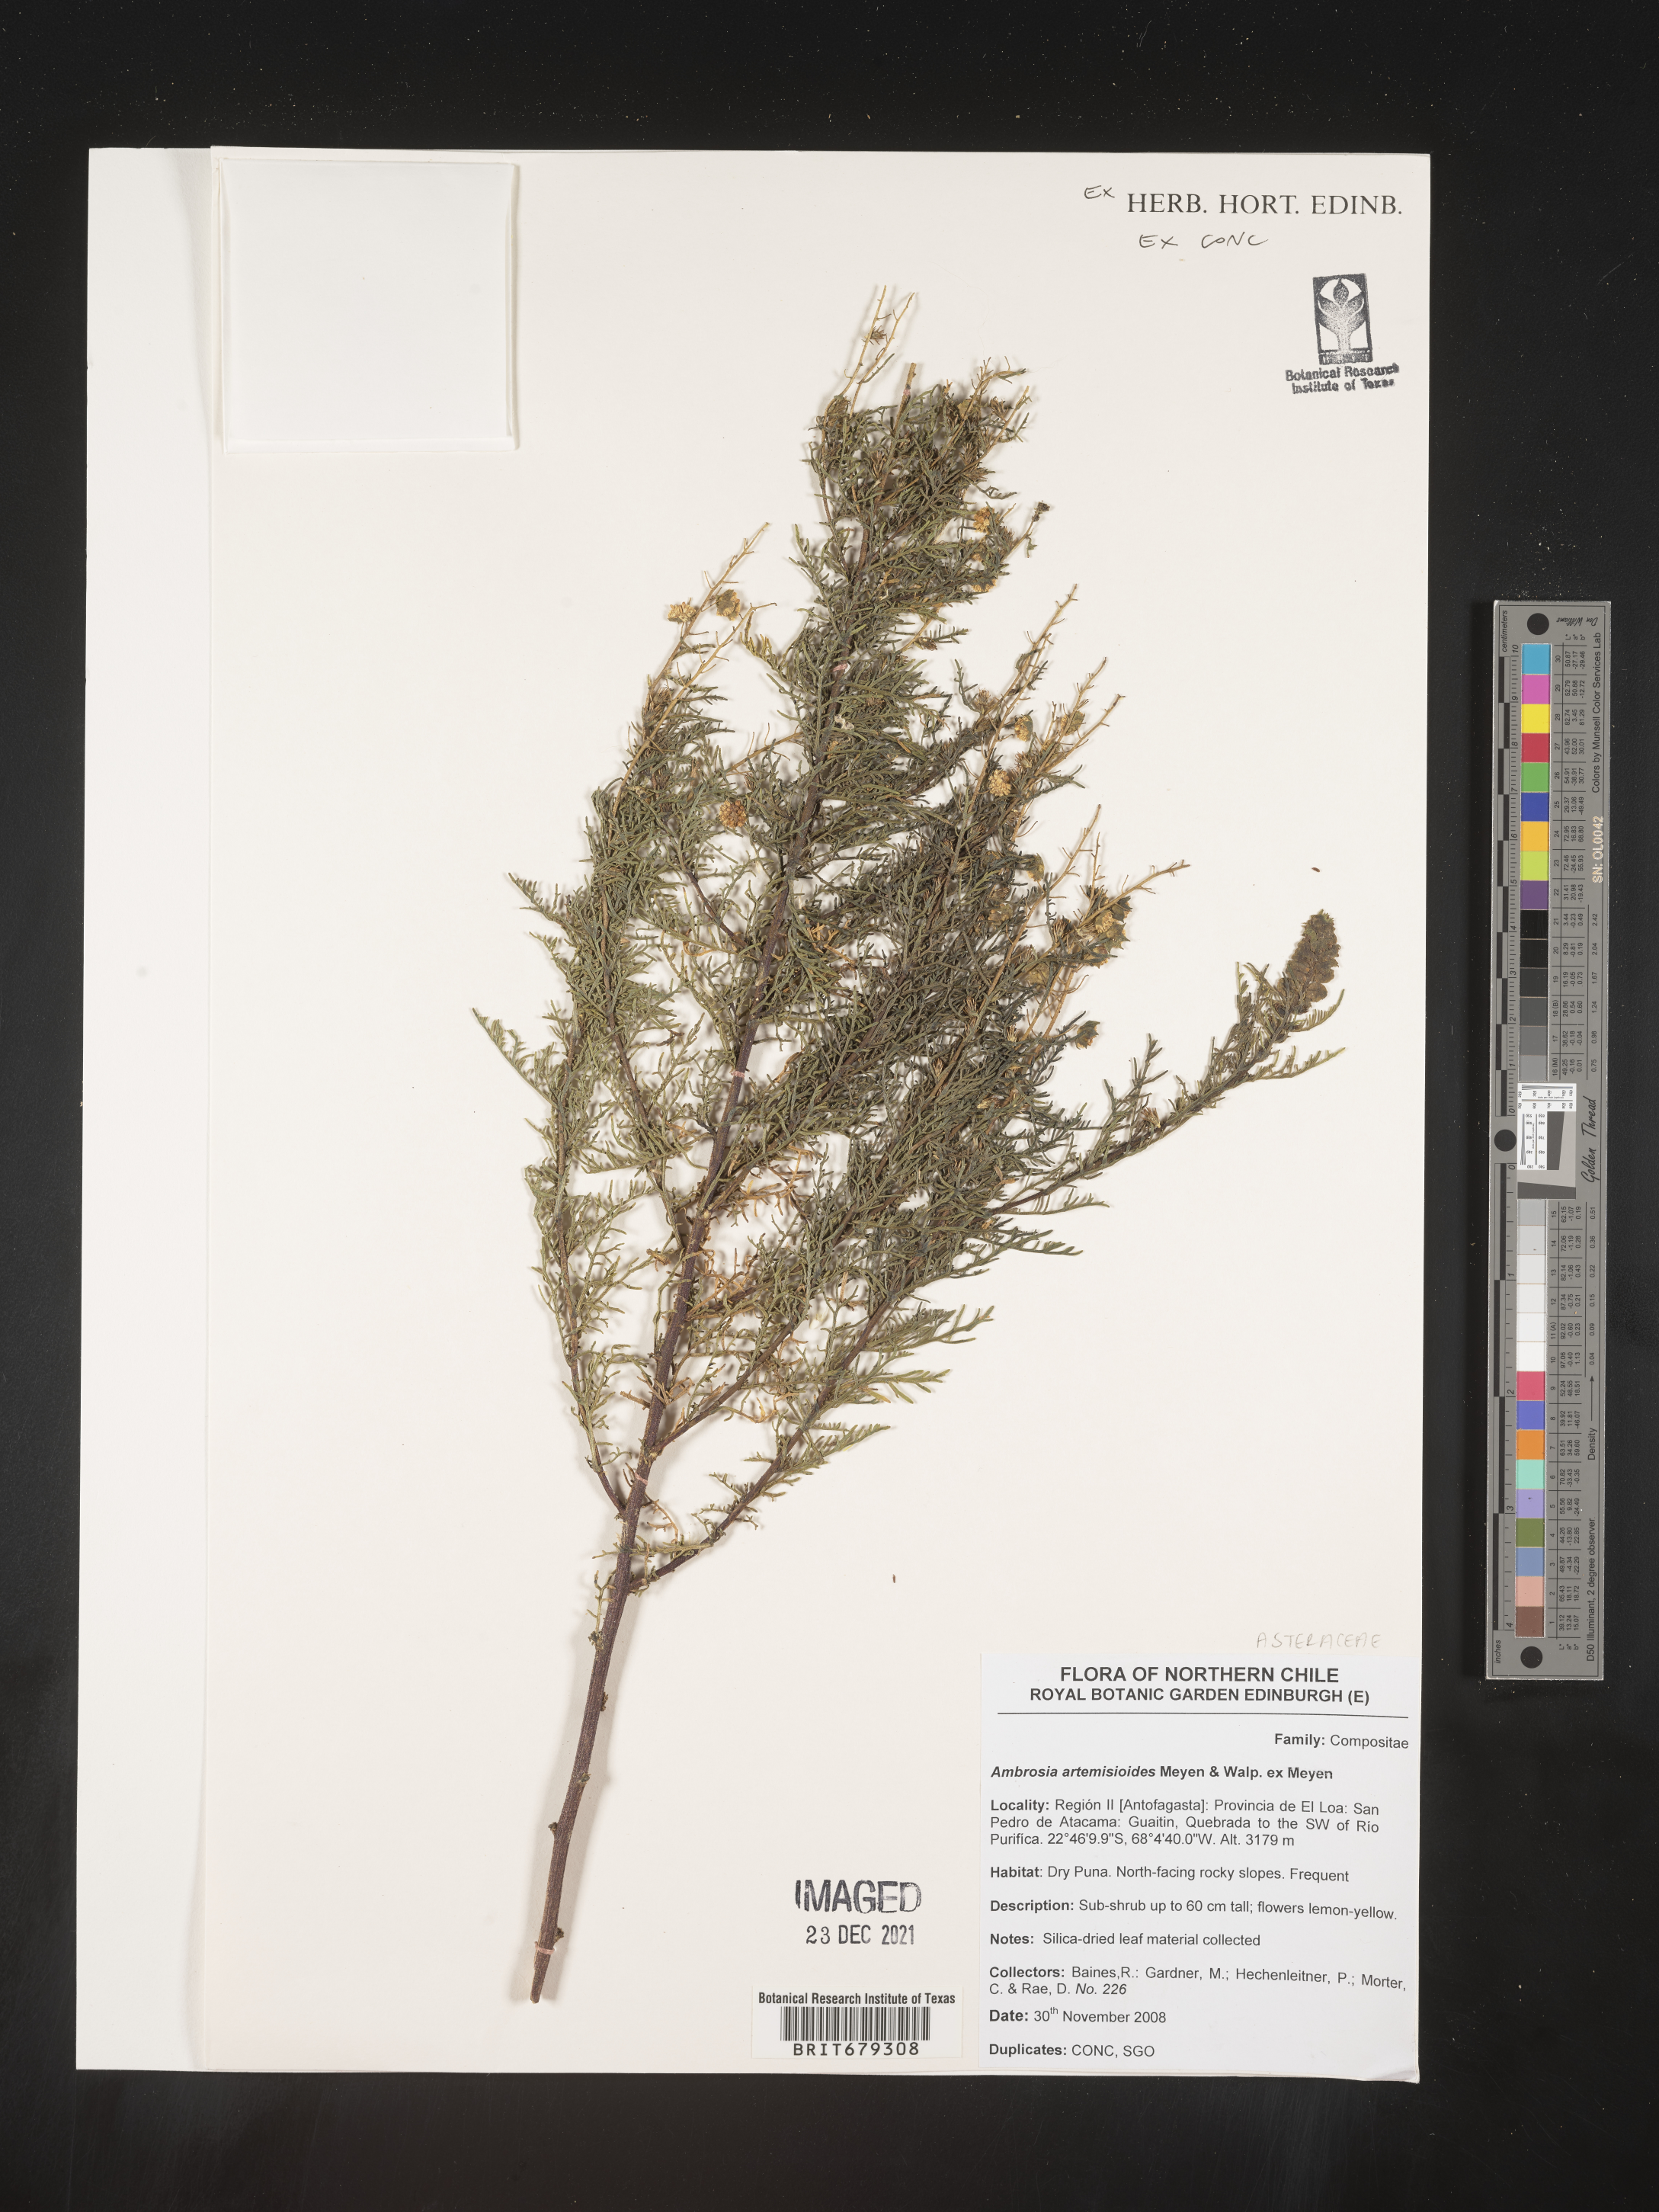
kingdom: Plantae
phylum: Tracheophyta
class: Magnoliopsida
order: Asterales
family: Asteraceae
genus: Ambrosia
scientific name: Ambrosia
